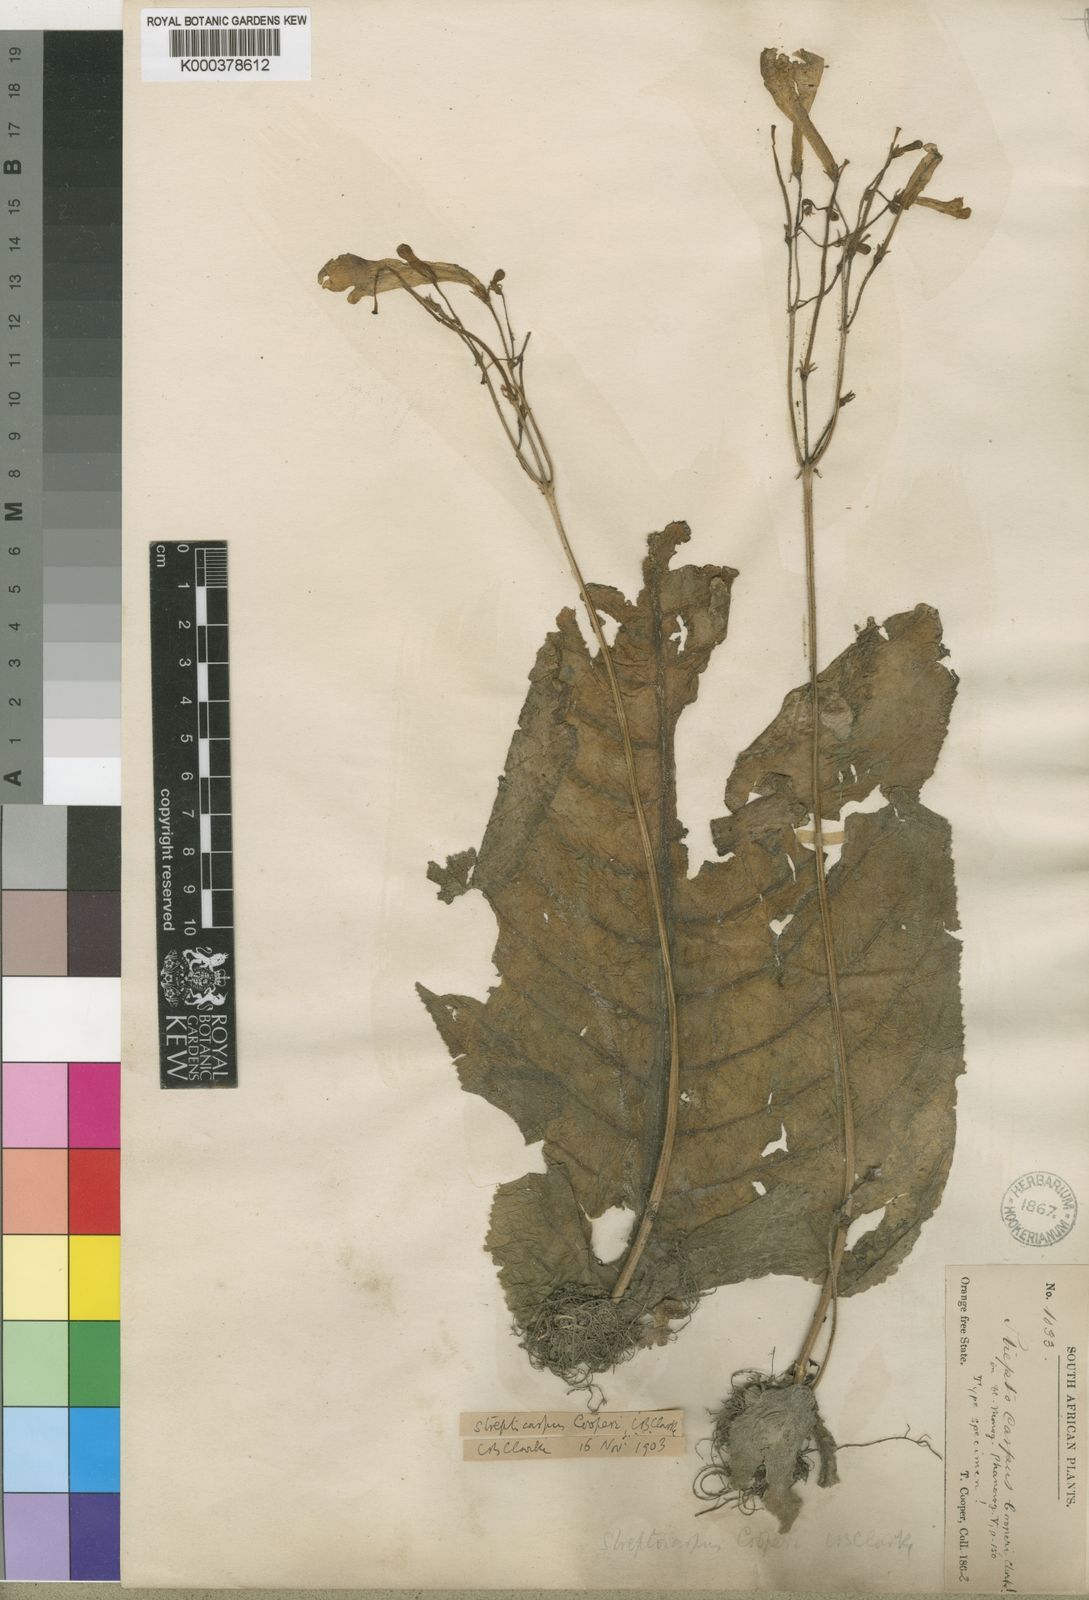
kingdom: Plantae
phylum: Tracheophyta
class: Magnoliopsida
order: Lamiales
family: Gesneriaceae
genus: Streptocarpus
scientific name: Streptocarpus cooperi
